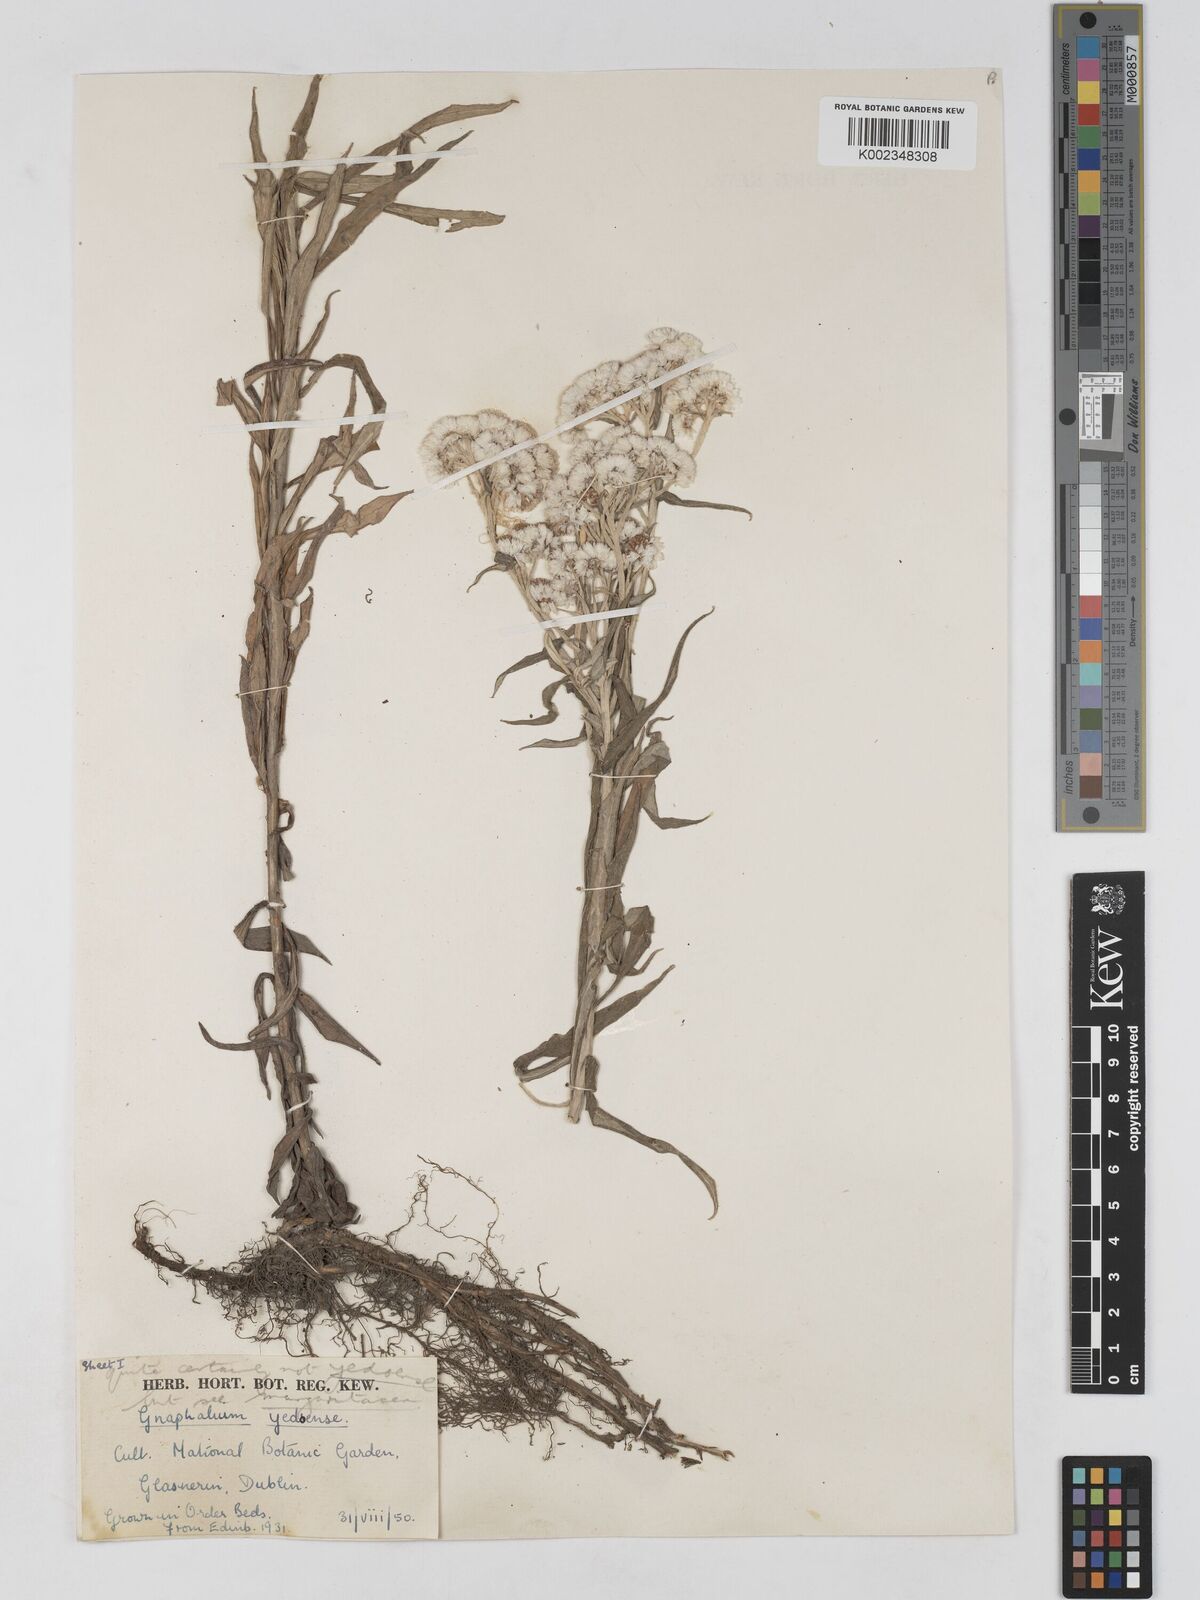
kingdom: Plantae
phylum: Tracheophyta
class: Magnoliopsida
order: Asterales
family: Asteraceae
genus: Anaphalis
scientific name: Anaphalis margaritacea
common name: Pearly everlasting
